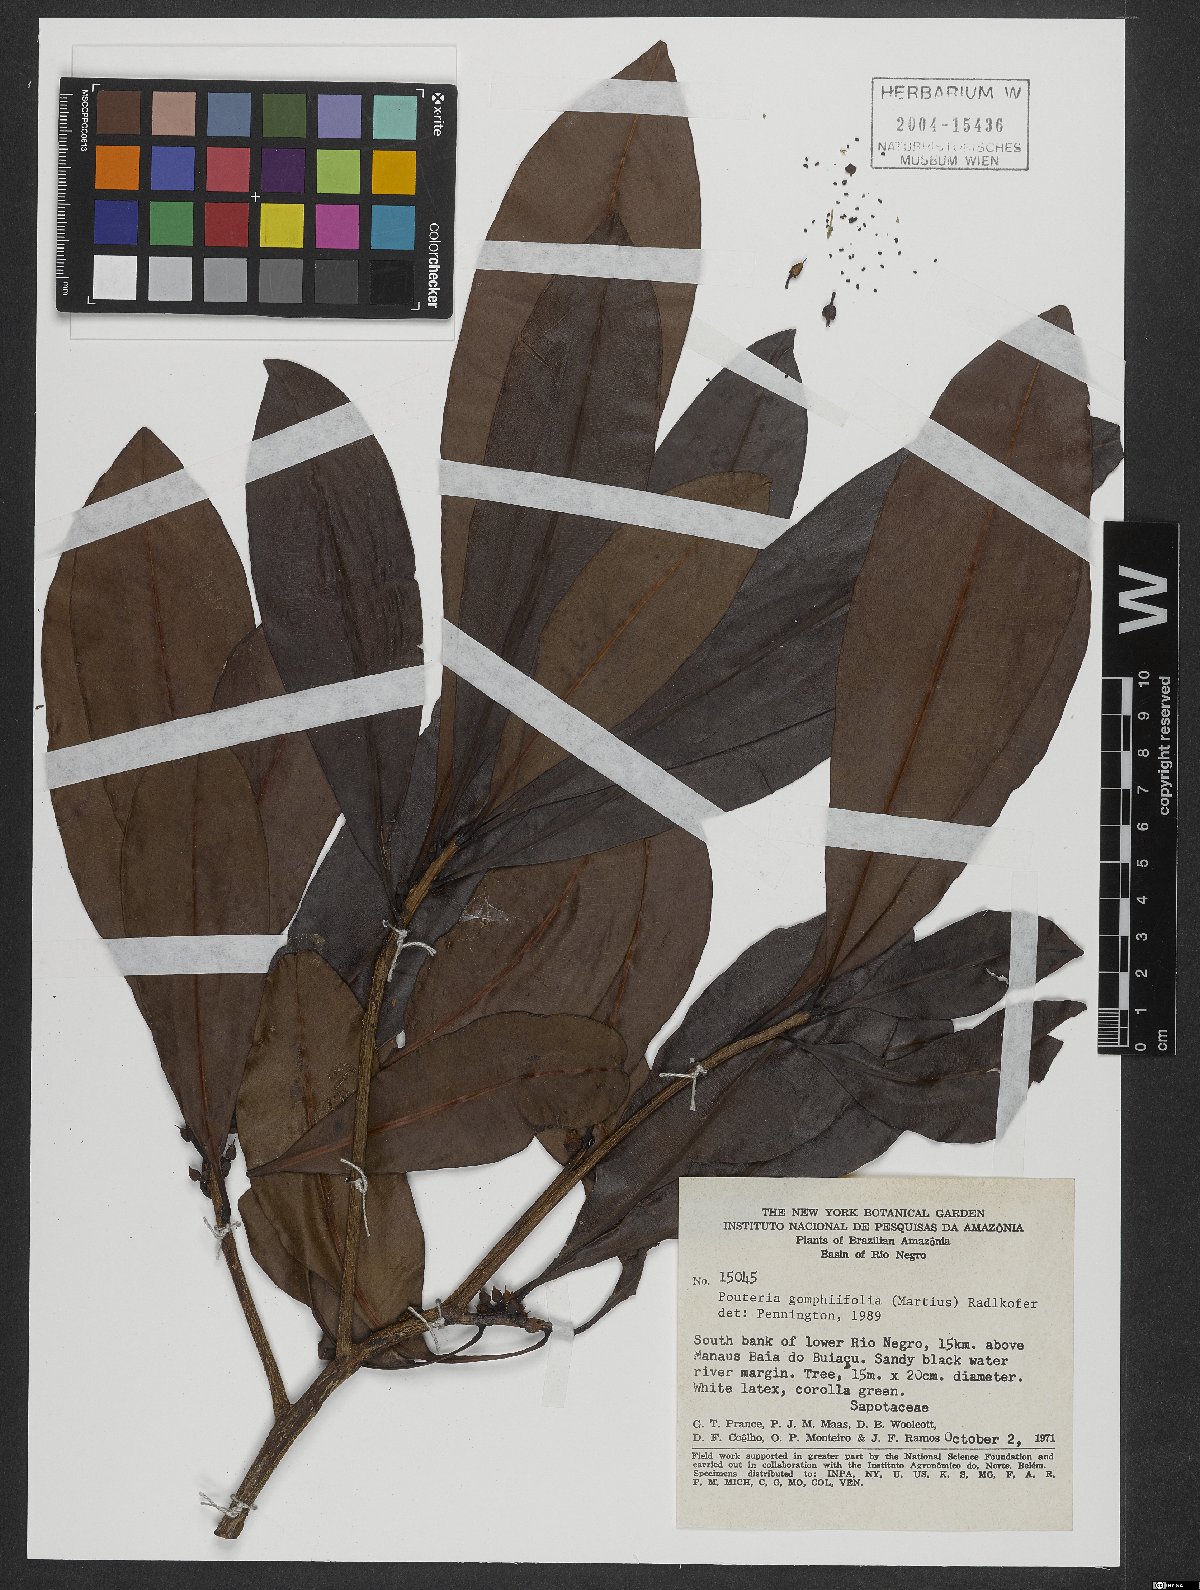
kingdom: Plantae
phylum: Tracheophyta
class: Magnoliopsida
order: Ericales
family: Sapotaceae
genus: Pouteria
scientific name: Pouteria gomphiifolia
